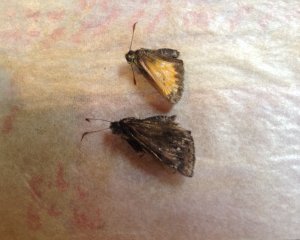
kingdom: Animalia
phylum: Arthropoda
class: Insecta
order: Lepidoptera
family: Hesperiidae
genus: Lon
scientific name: Lon hobomok
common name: Hobomok Skipper
